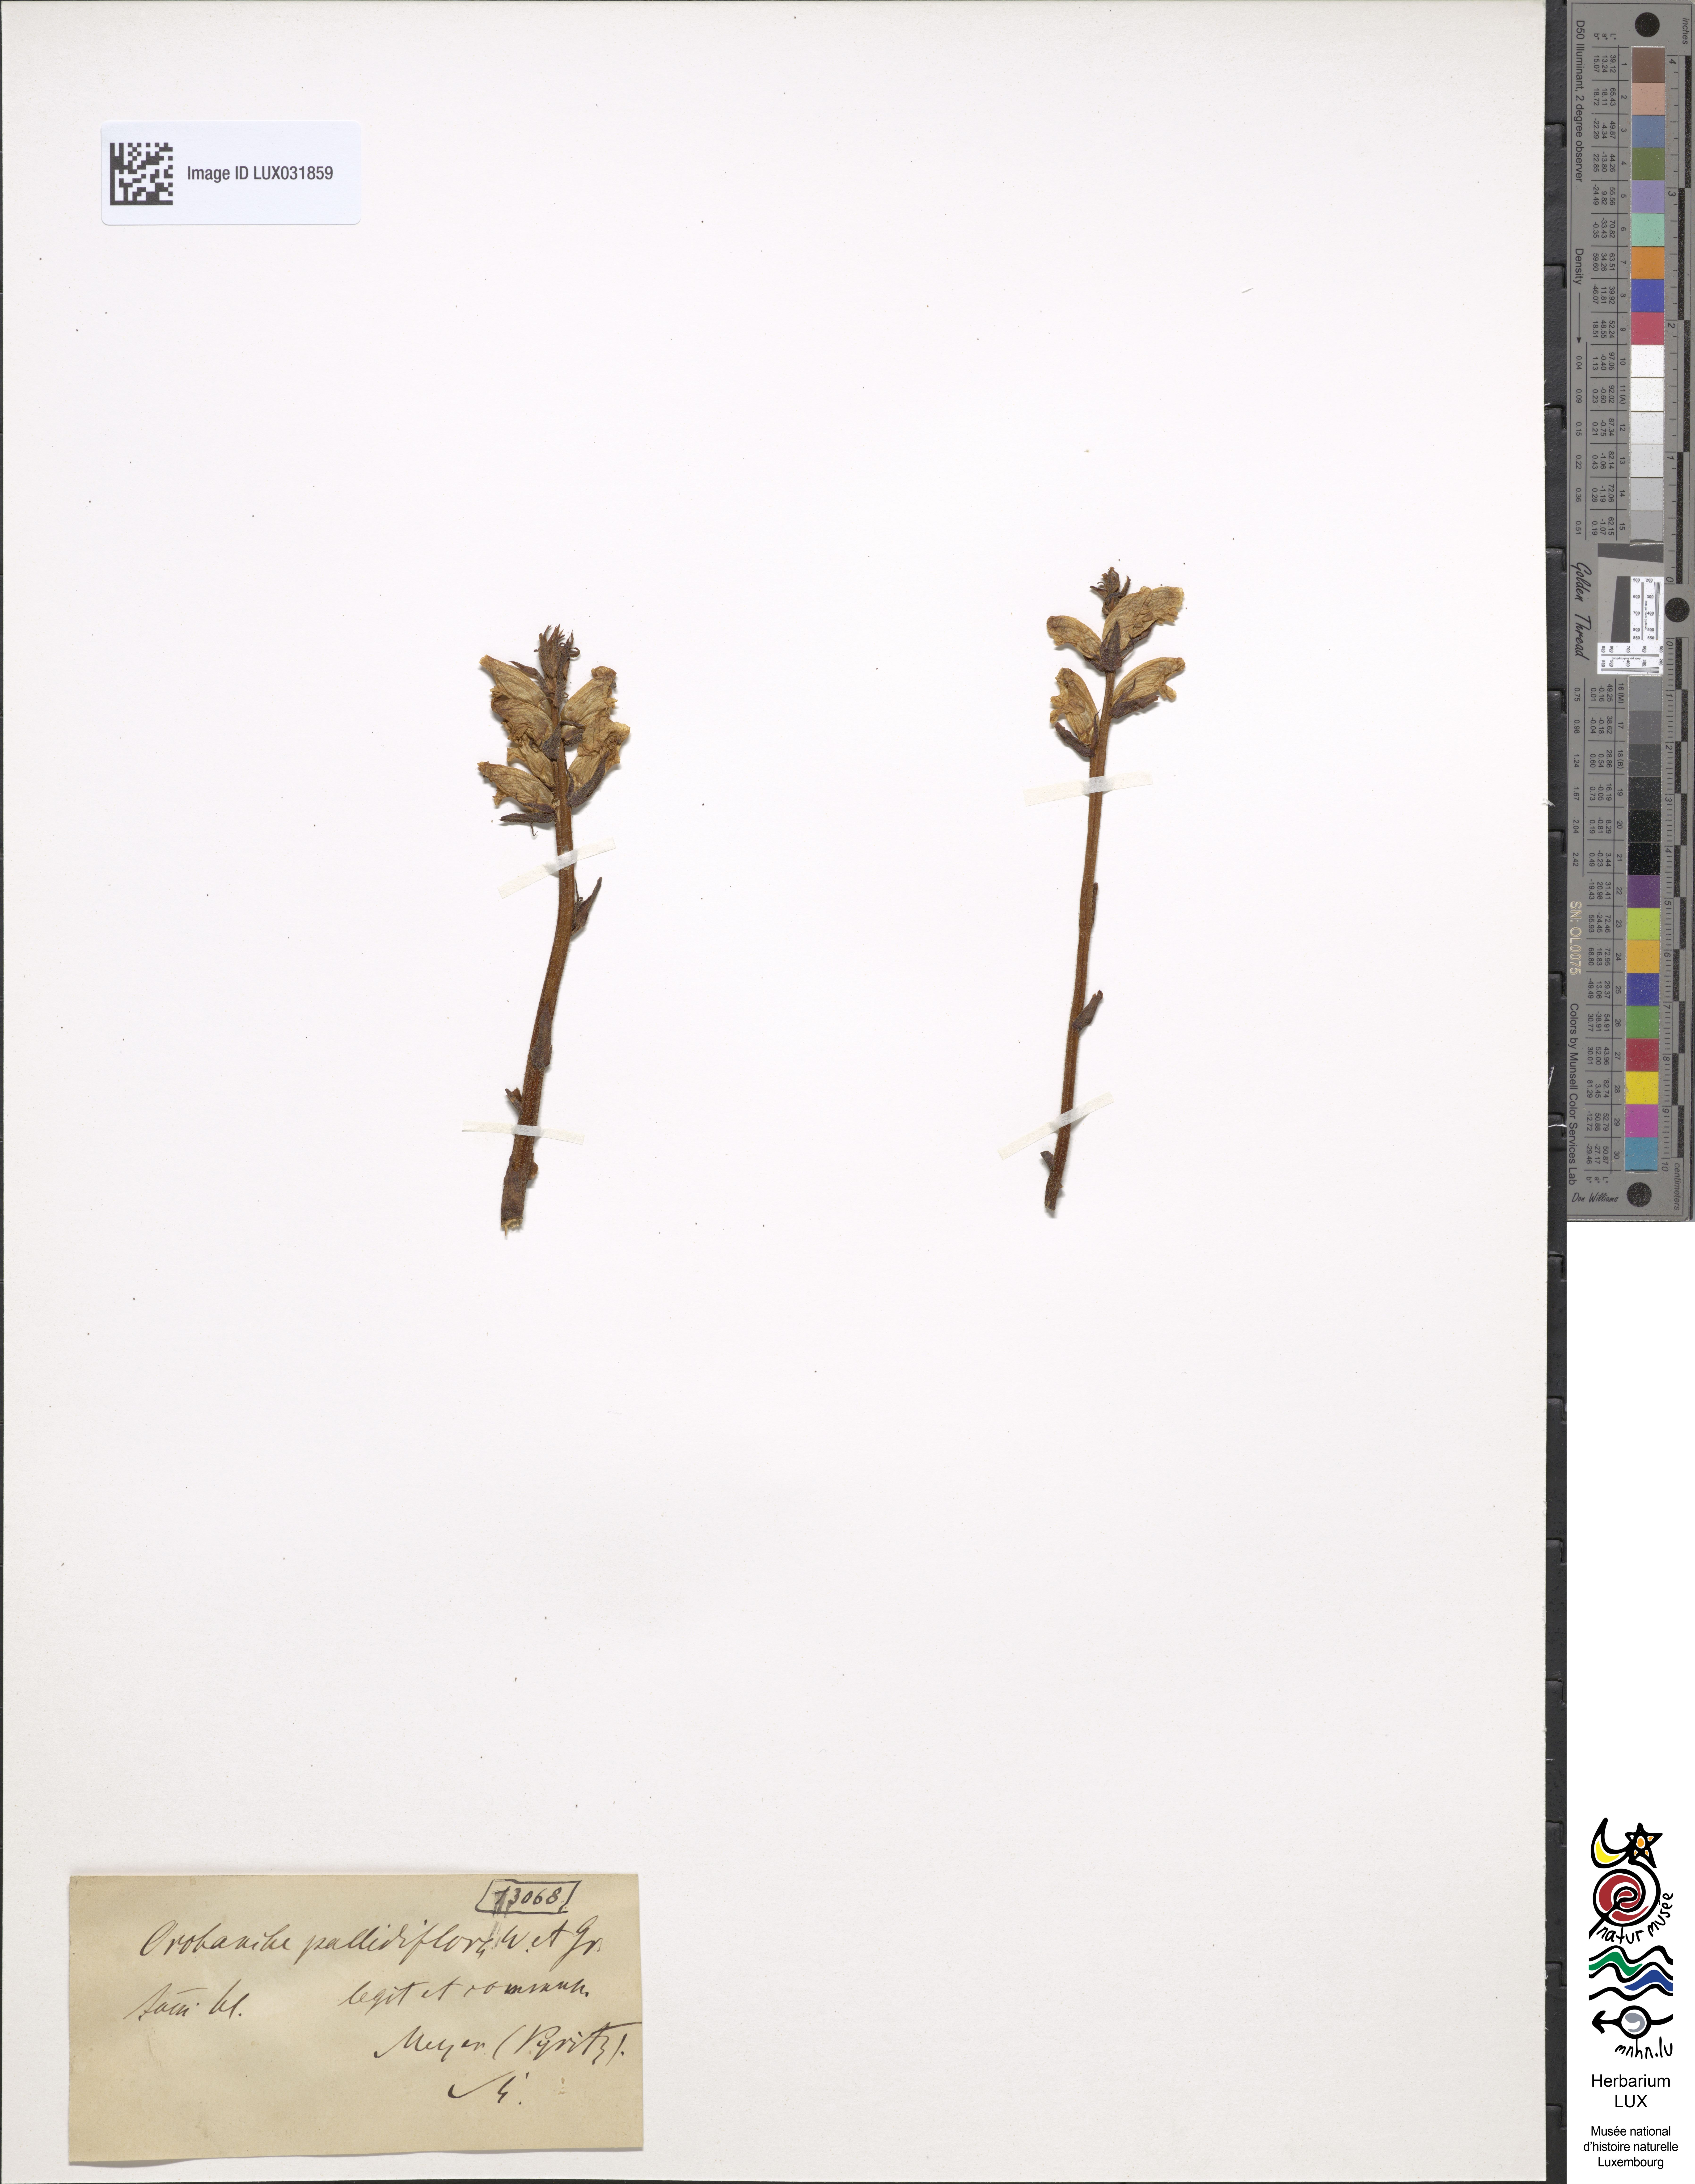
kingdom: Plantae
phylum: Tracheophyta
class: Magnoliopsida
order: Lamiales
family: Orobanchaceae
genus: Orobanche
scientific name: Orobanche reticulata
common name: Thistle broomrape
